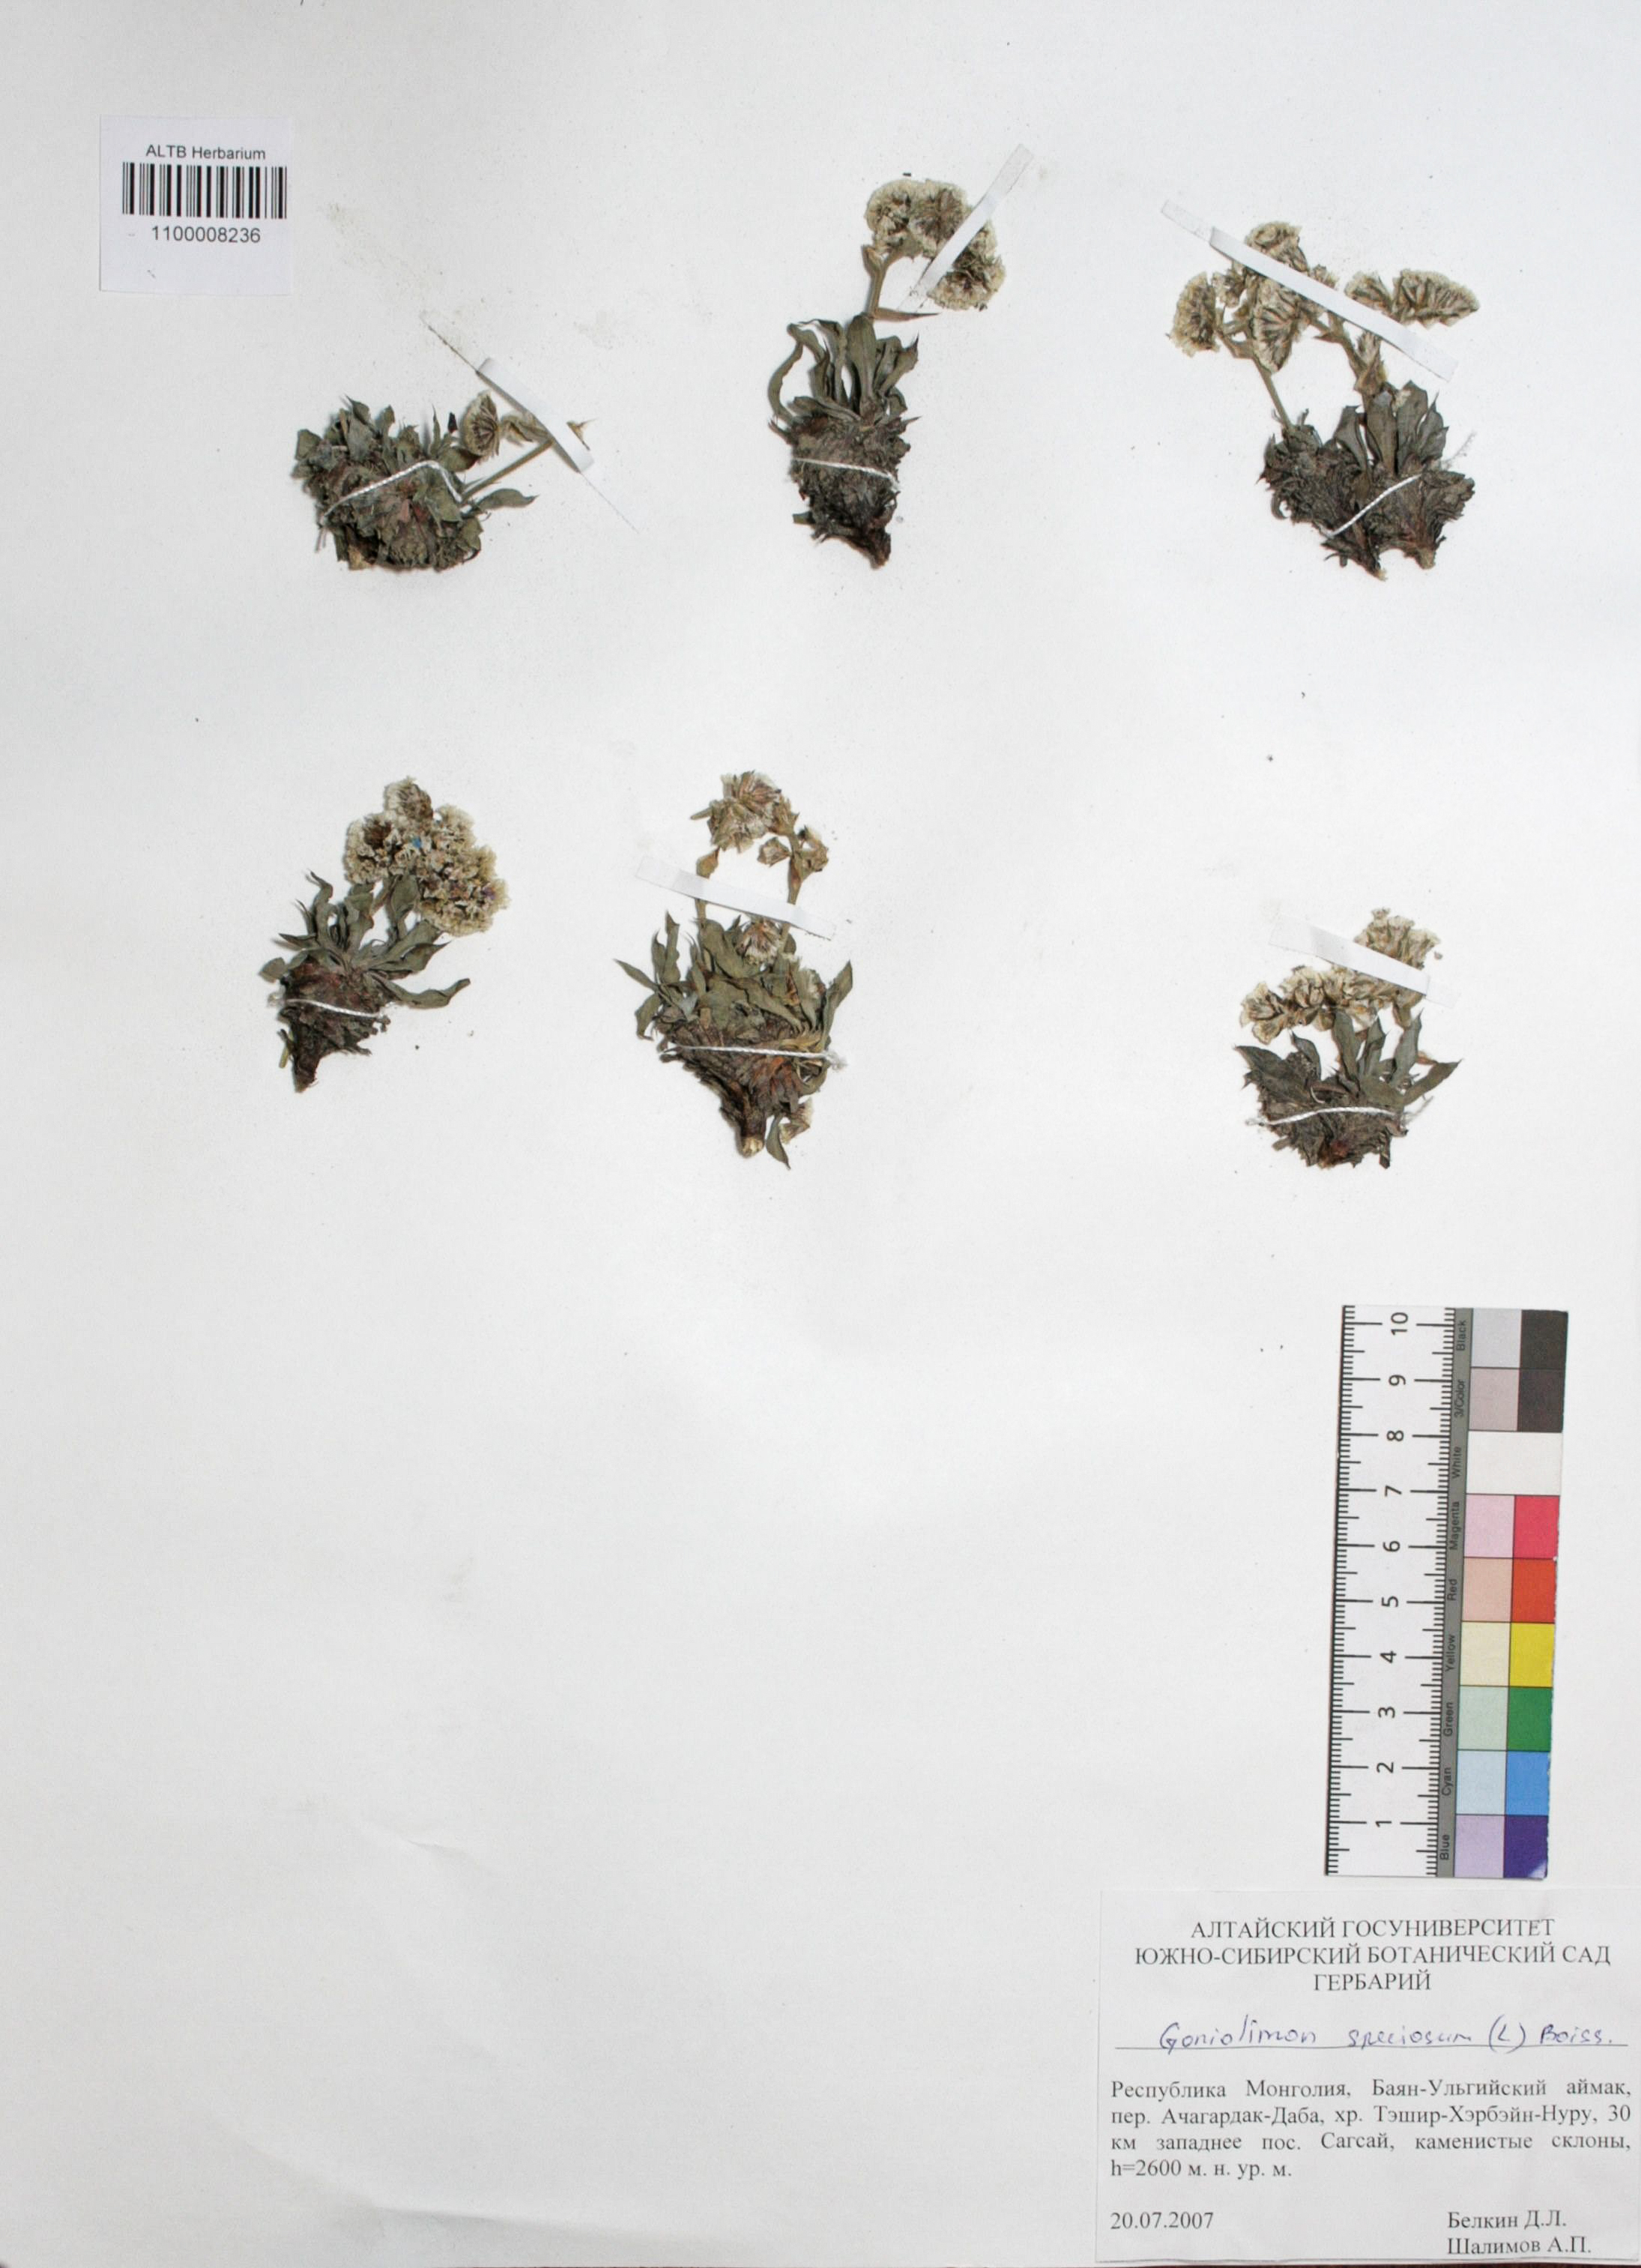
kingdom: Plantae
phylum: Tracheophyta
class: Magnoliopsida
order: Caryophyllales
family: Plumbaginaceae
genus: Goniolimon
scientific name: Goniolimon speciosum
